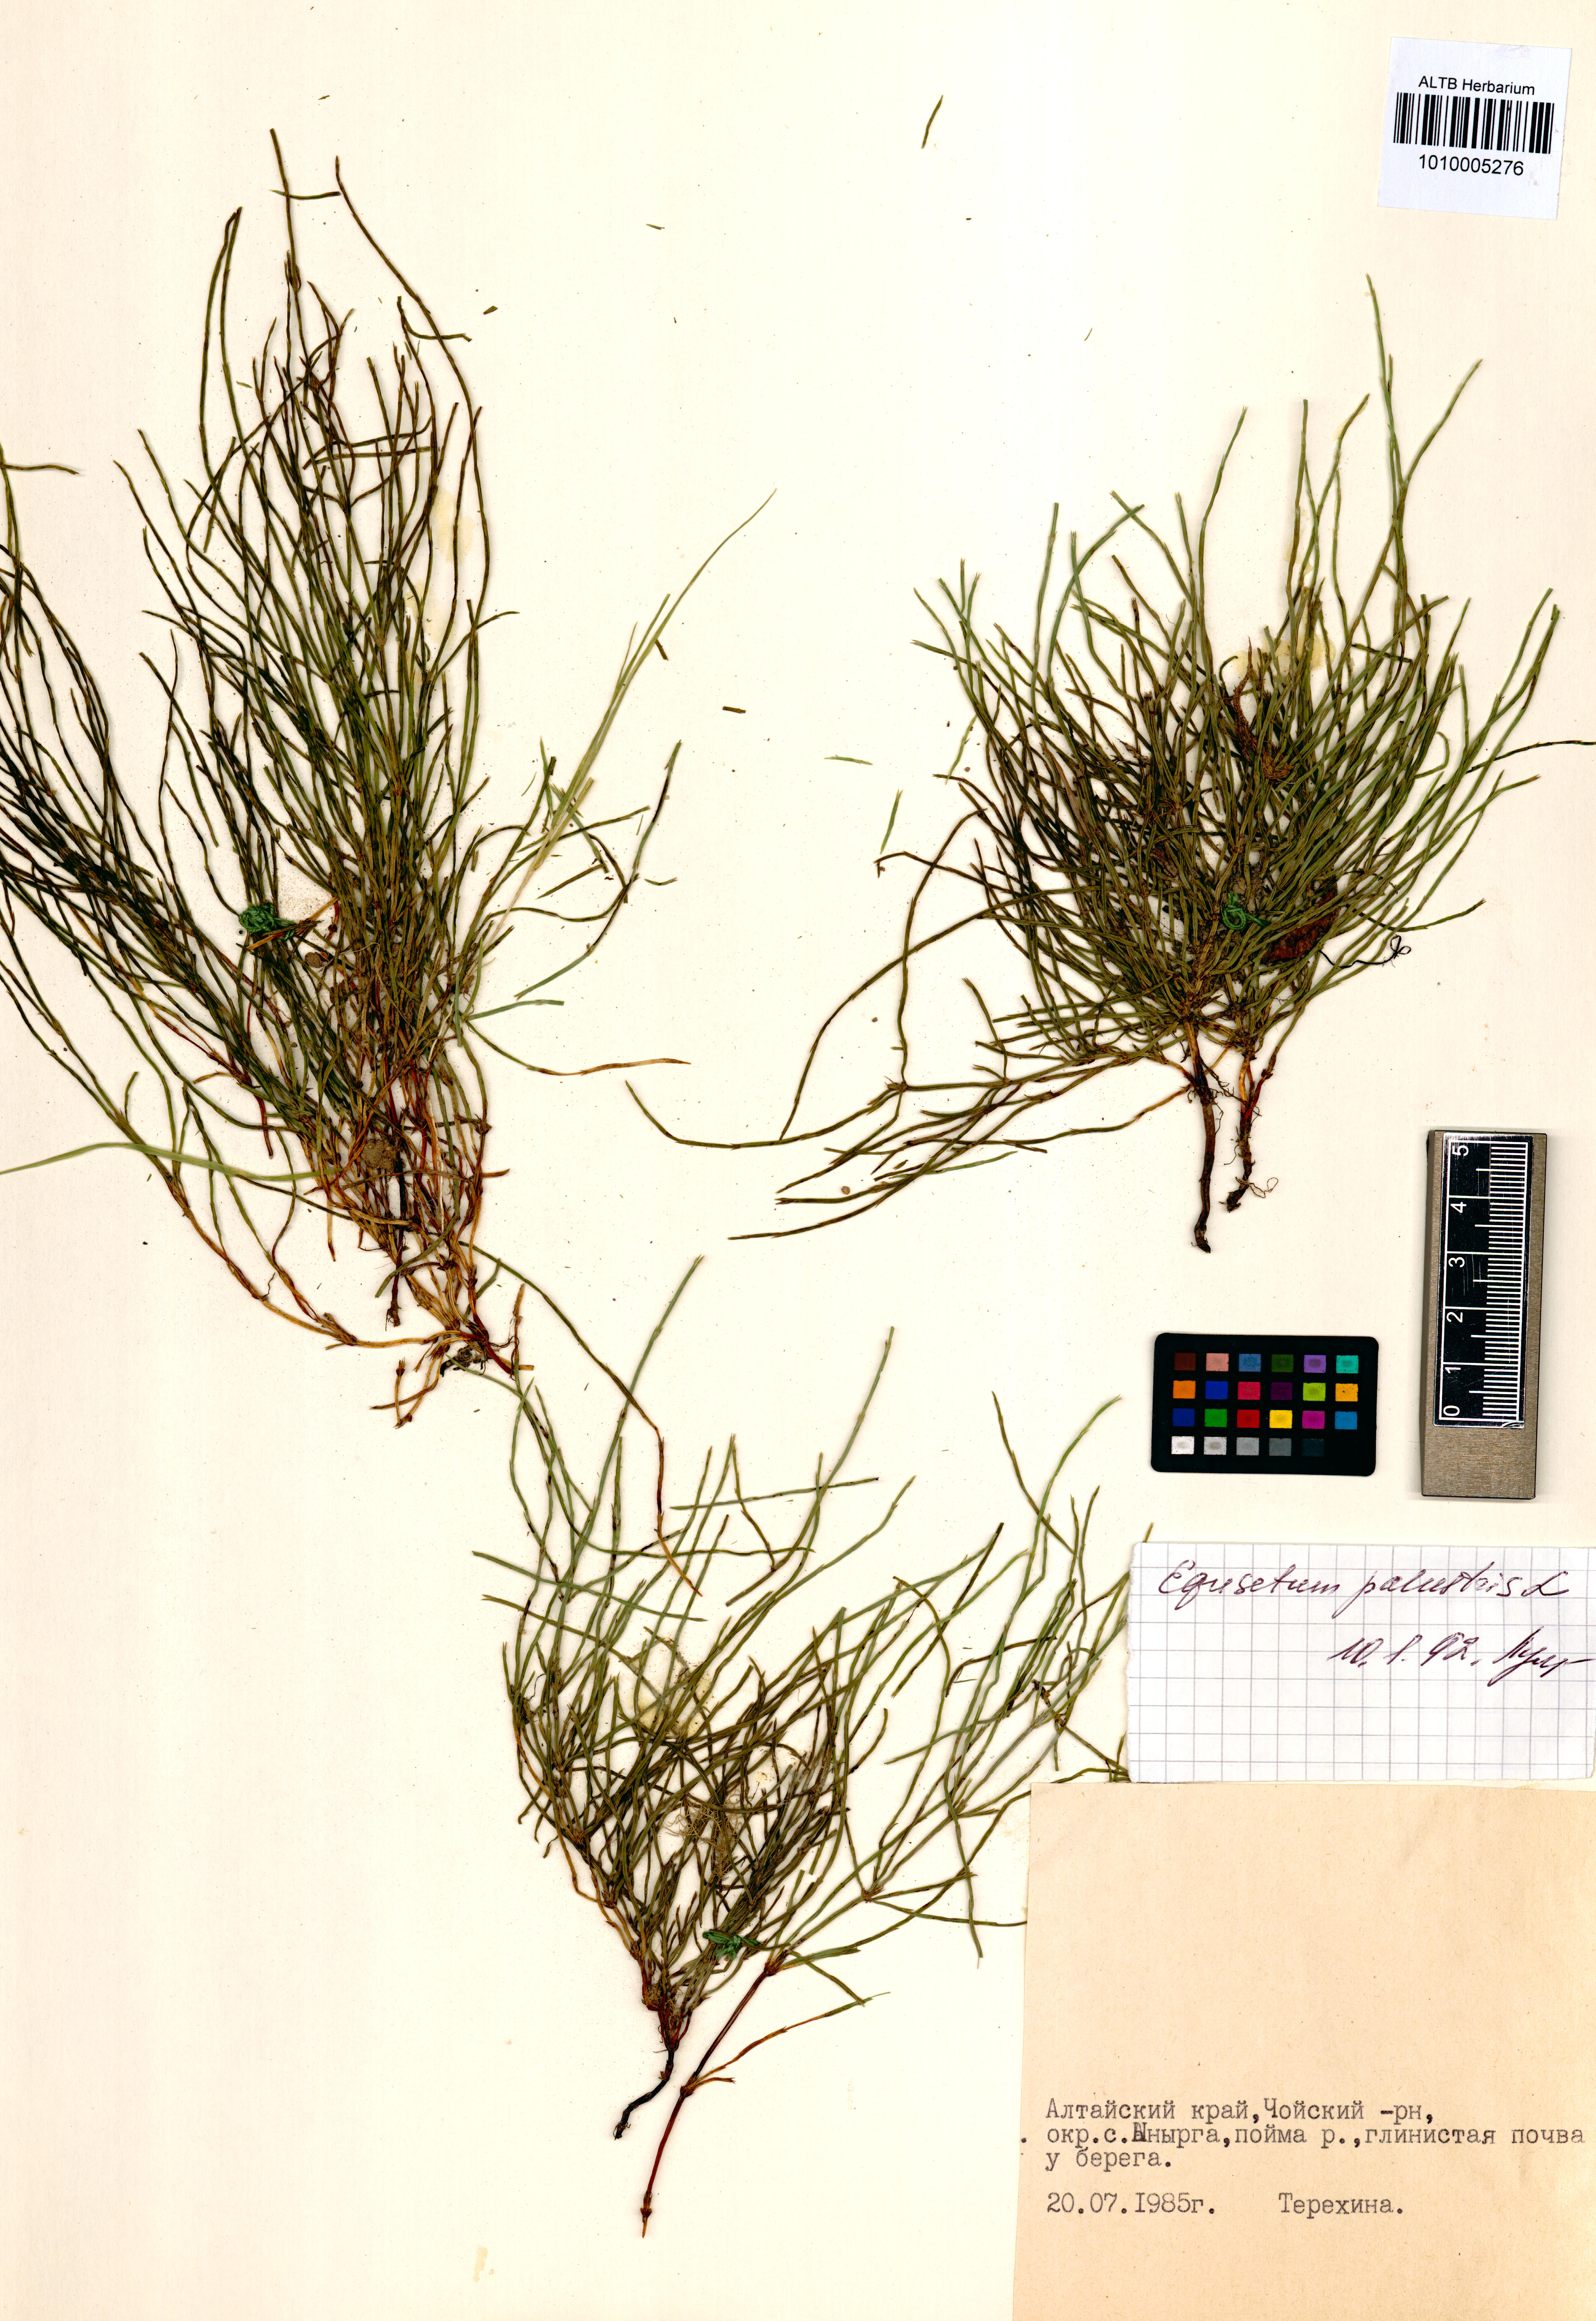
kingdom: Plantae
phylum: Tracheophyta
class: Polypodiopsida
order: Equisetales
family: Equisetaceae
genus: Equisetum
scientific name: Equisetum palustre
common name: Marsh horsetail
